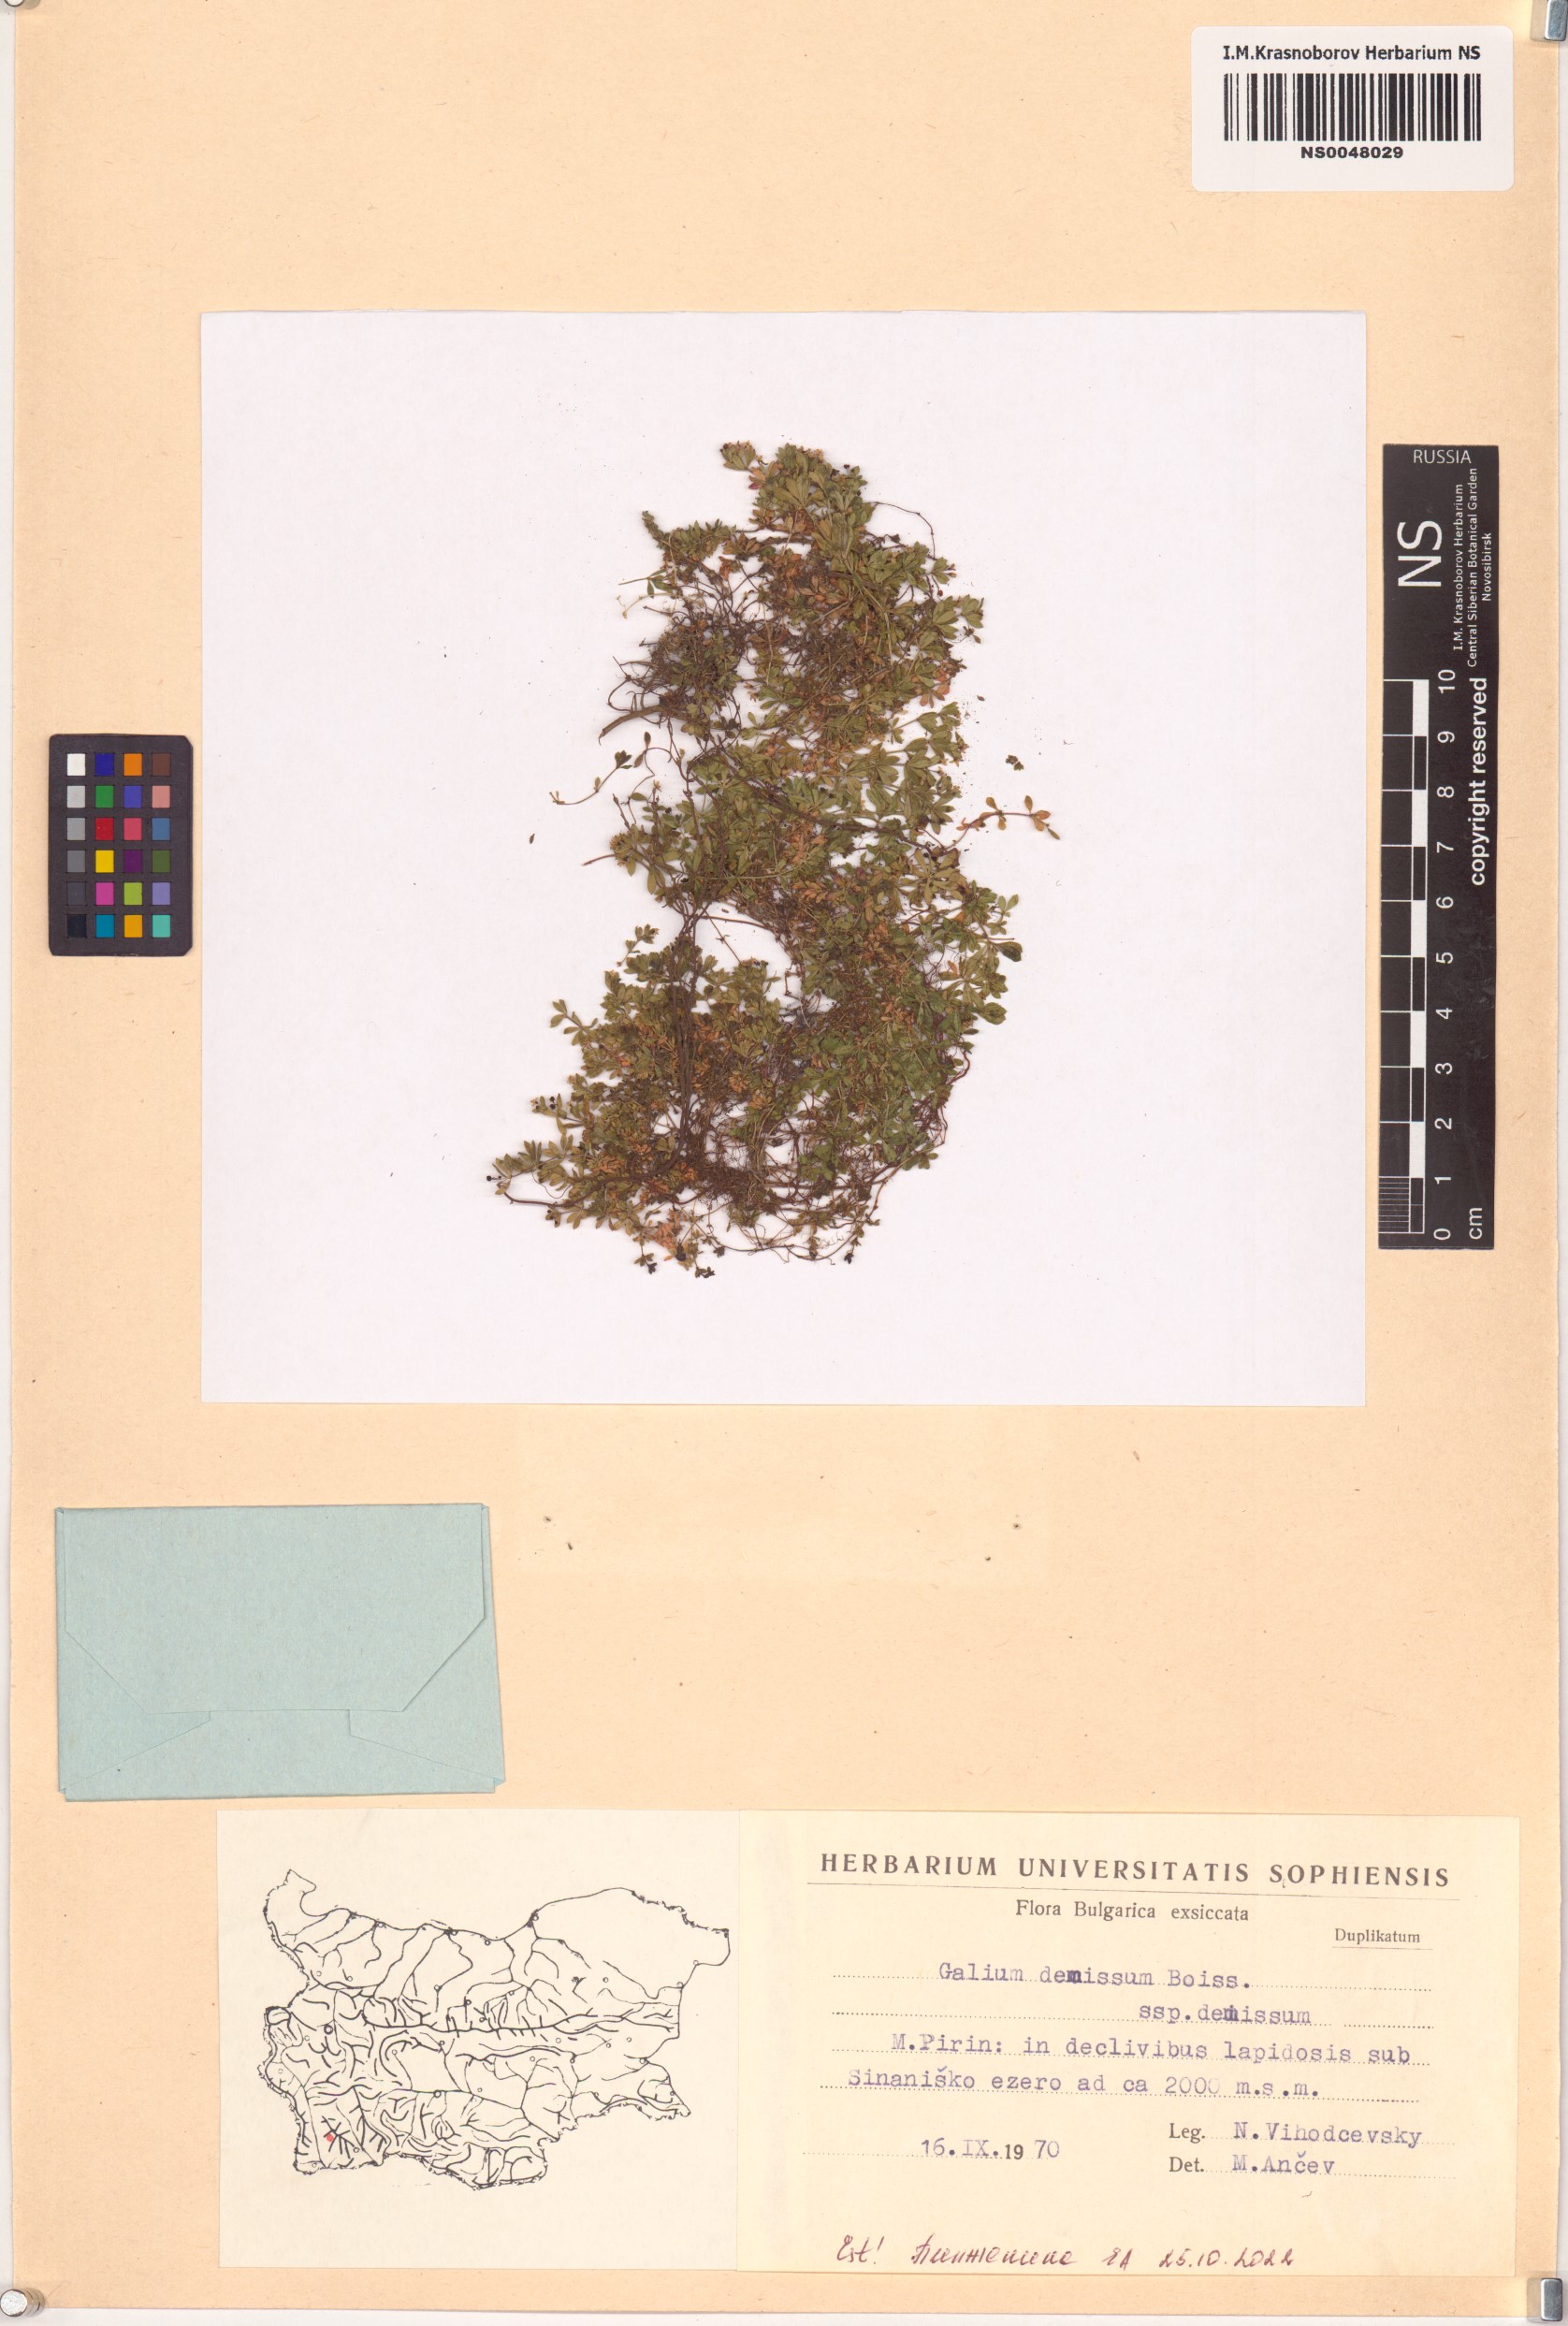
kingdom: Plantae
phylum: Tracheophyta
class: Magnoliopsida
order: Gentianales
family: Rubiaceae
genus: Galium
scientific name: Galium demissum
